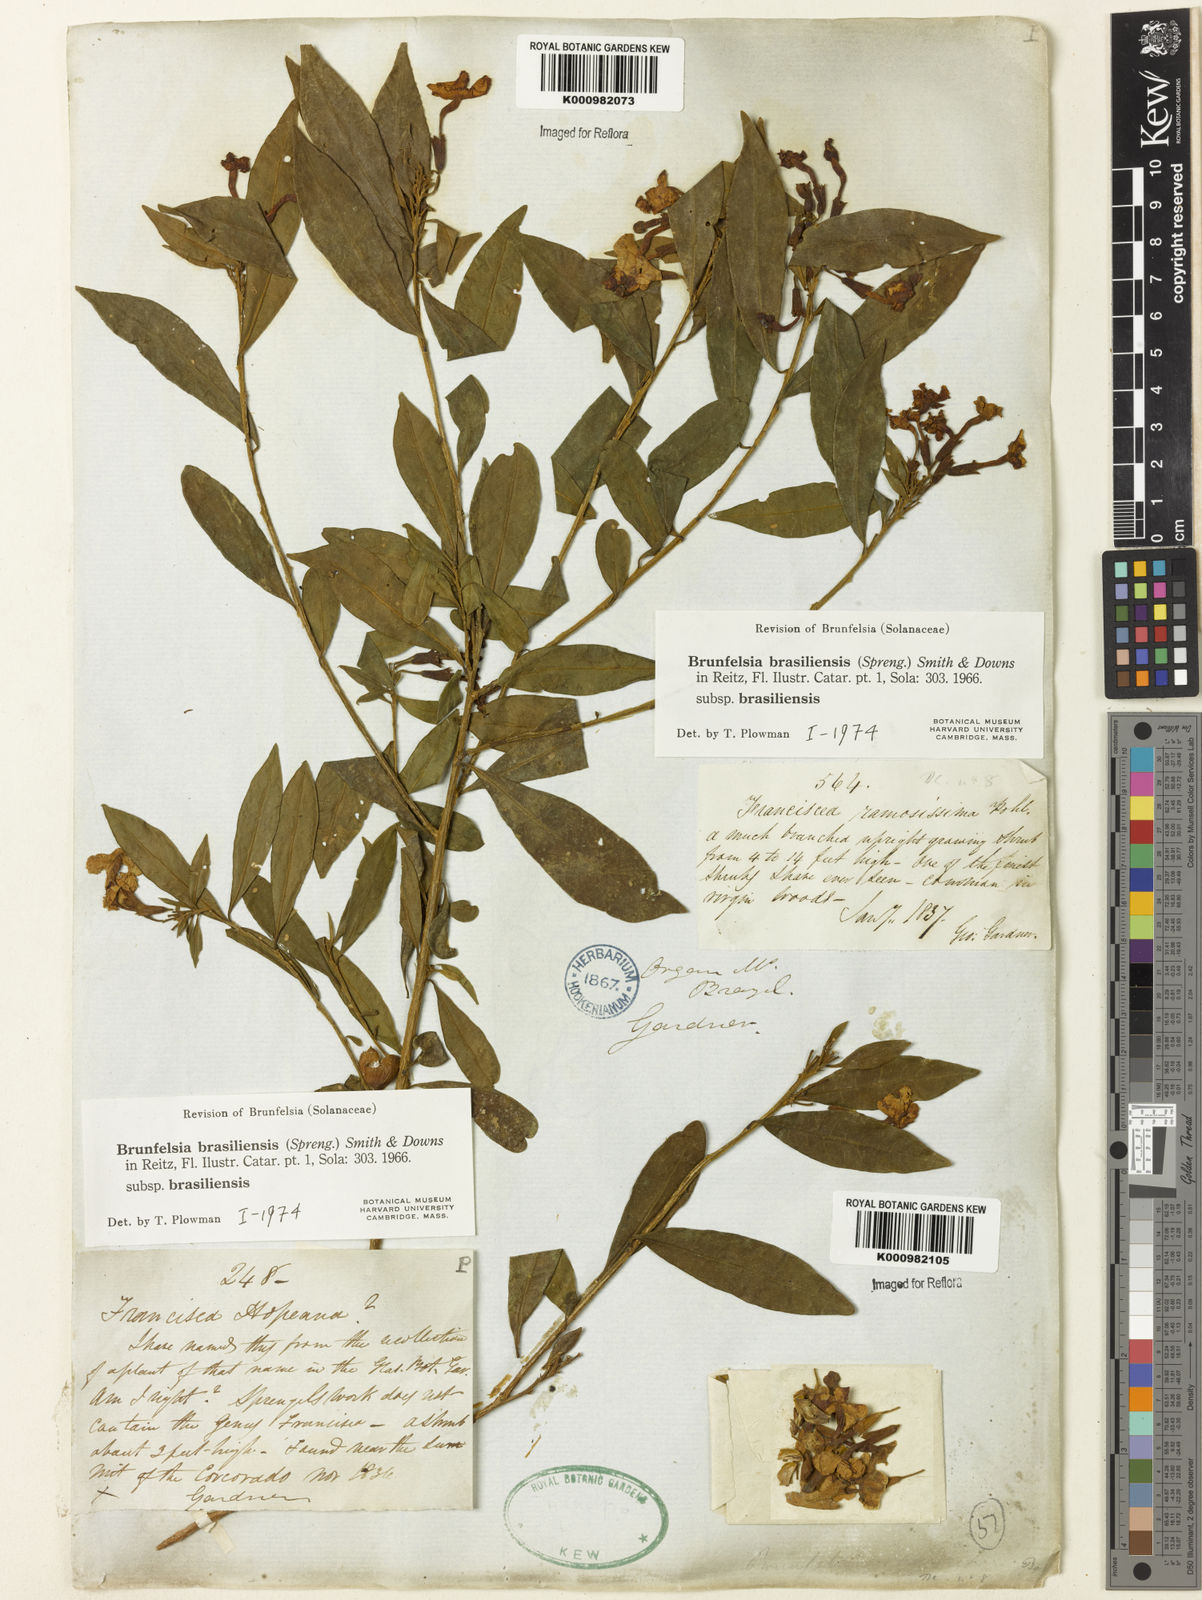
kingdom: Plantae
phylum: Tracheophyta
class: Magnoliopsida
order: Solanales
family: Solanaceae
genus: Brunfelsia
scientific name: Brunfelsia brasiliensis
